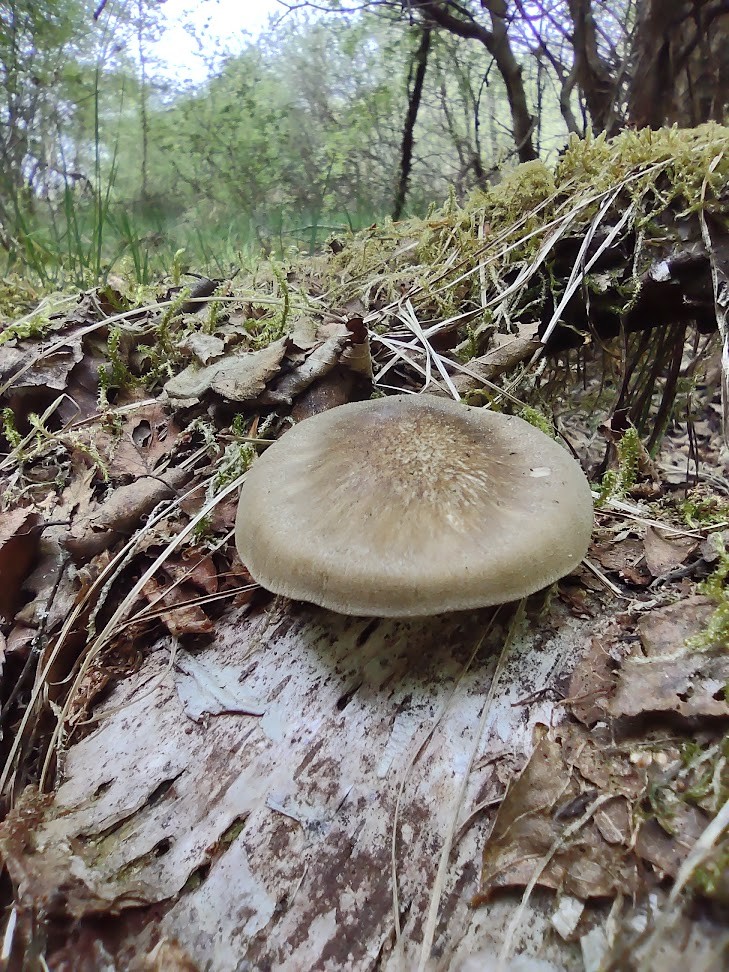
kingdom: Fungi
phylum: Basidiomycota
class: Agaricomycetes
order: Polyporales
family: Polyporaceae
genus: Lentinus
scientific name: Lentinus substrictus
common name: forårs-stilkporesvamp
